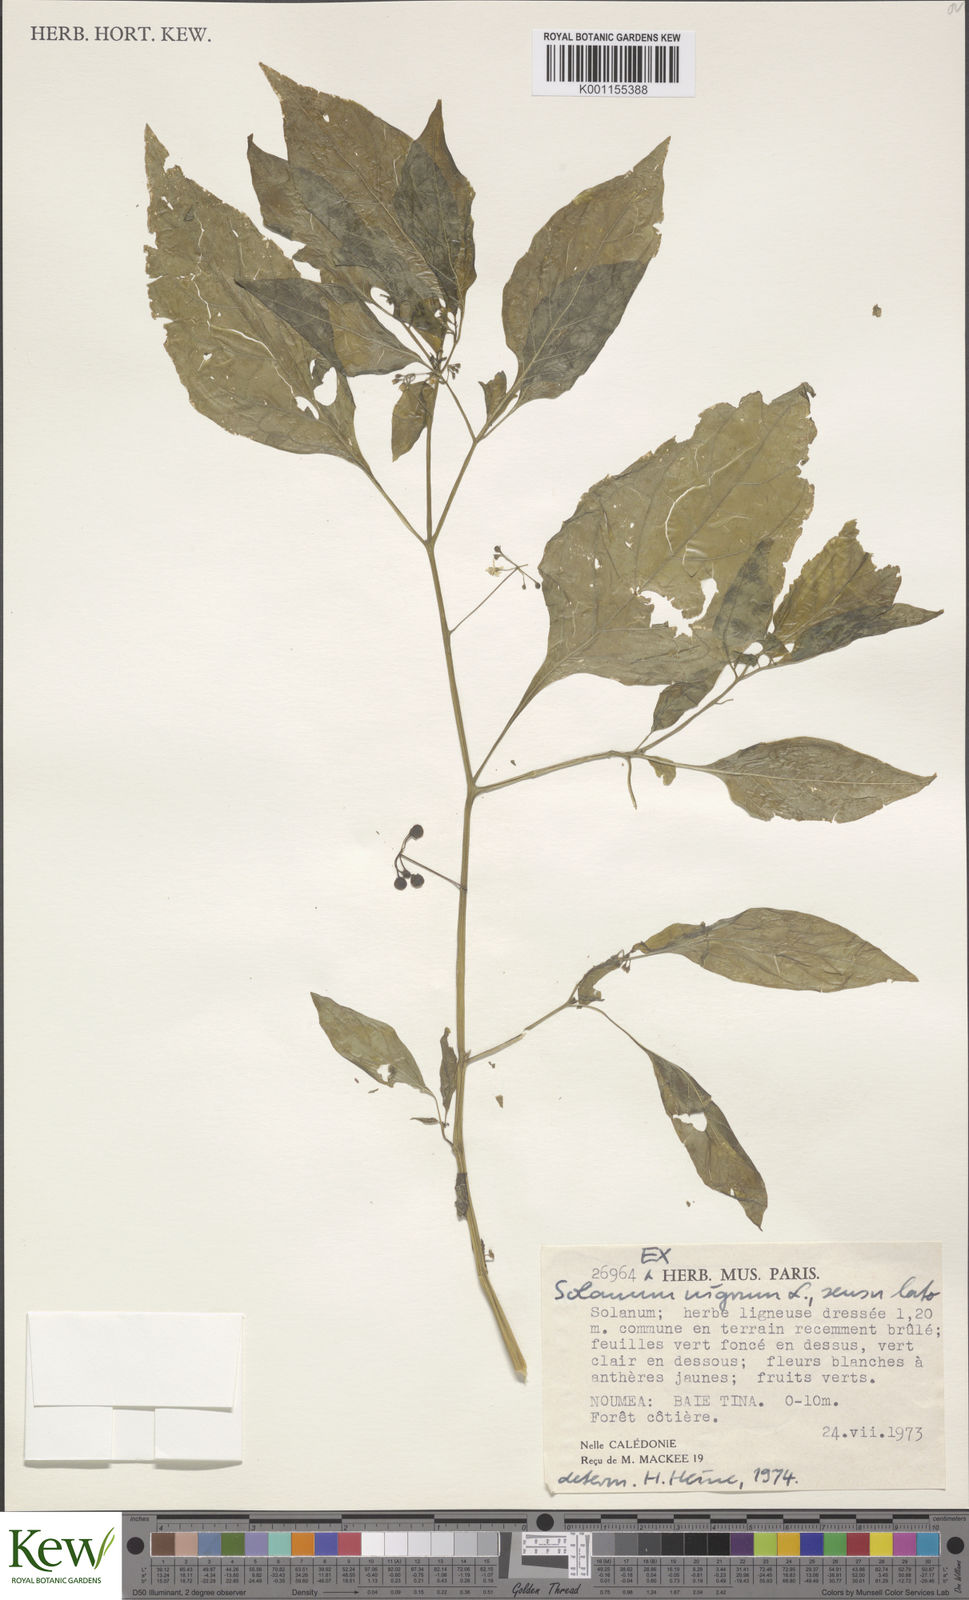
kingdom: Plantae
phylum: Tracheophyta
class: Magnoliopsida
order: Solanales
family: Solanaceae
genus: Solanum
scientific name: Solanum
